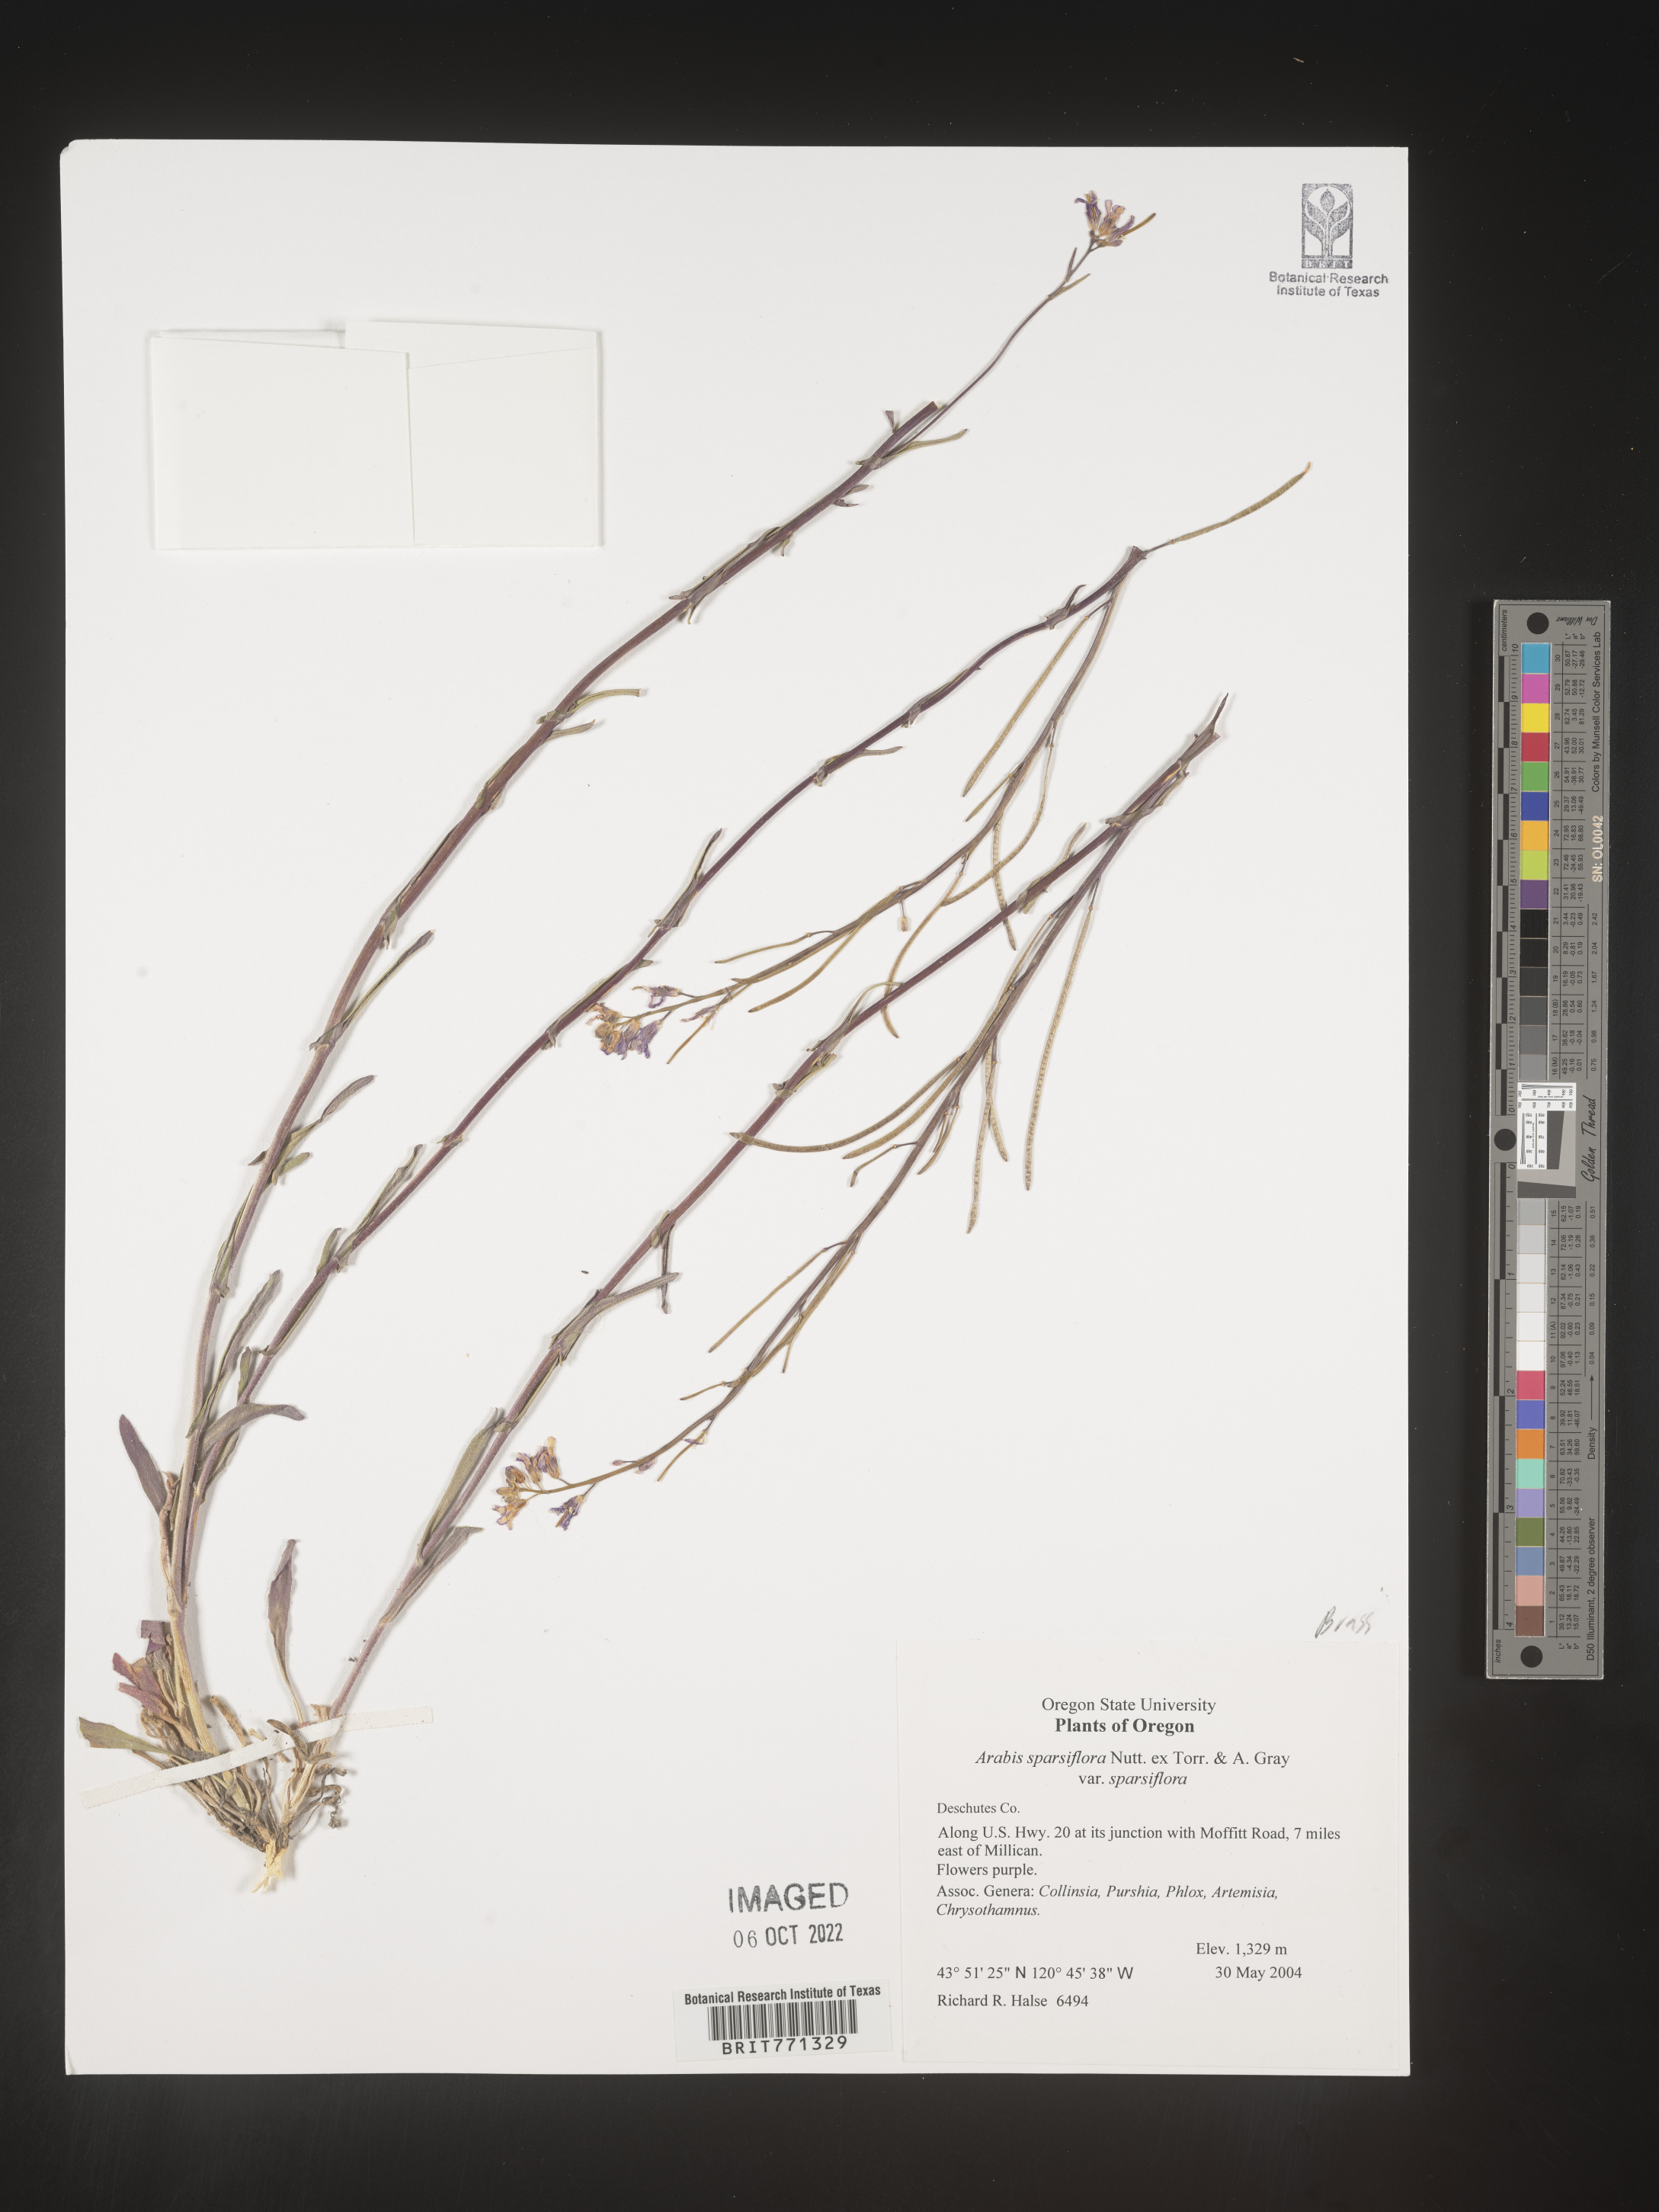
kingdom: Plantae
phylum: Tracheophyta
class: Magnoliopsida
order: Brassicales
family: Brassicaceae
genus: Arabis
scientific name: Arabis
